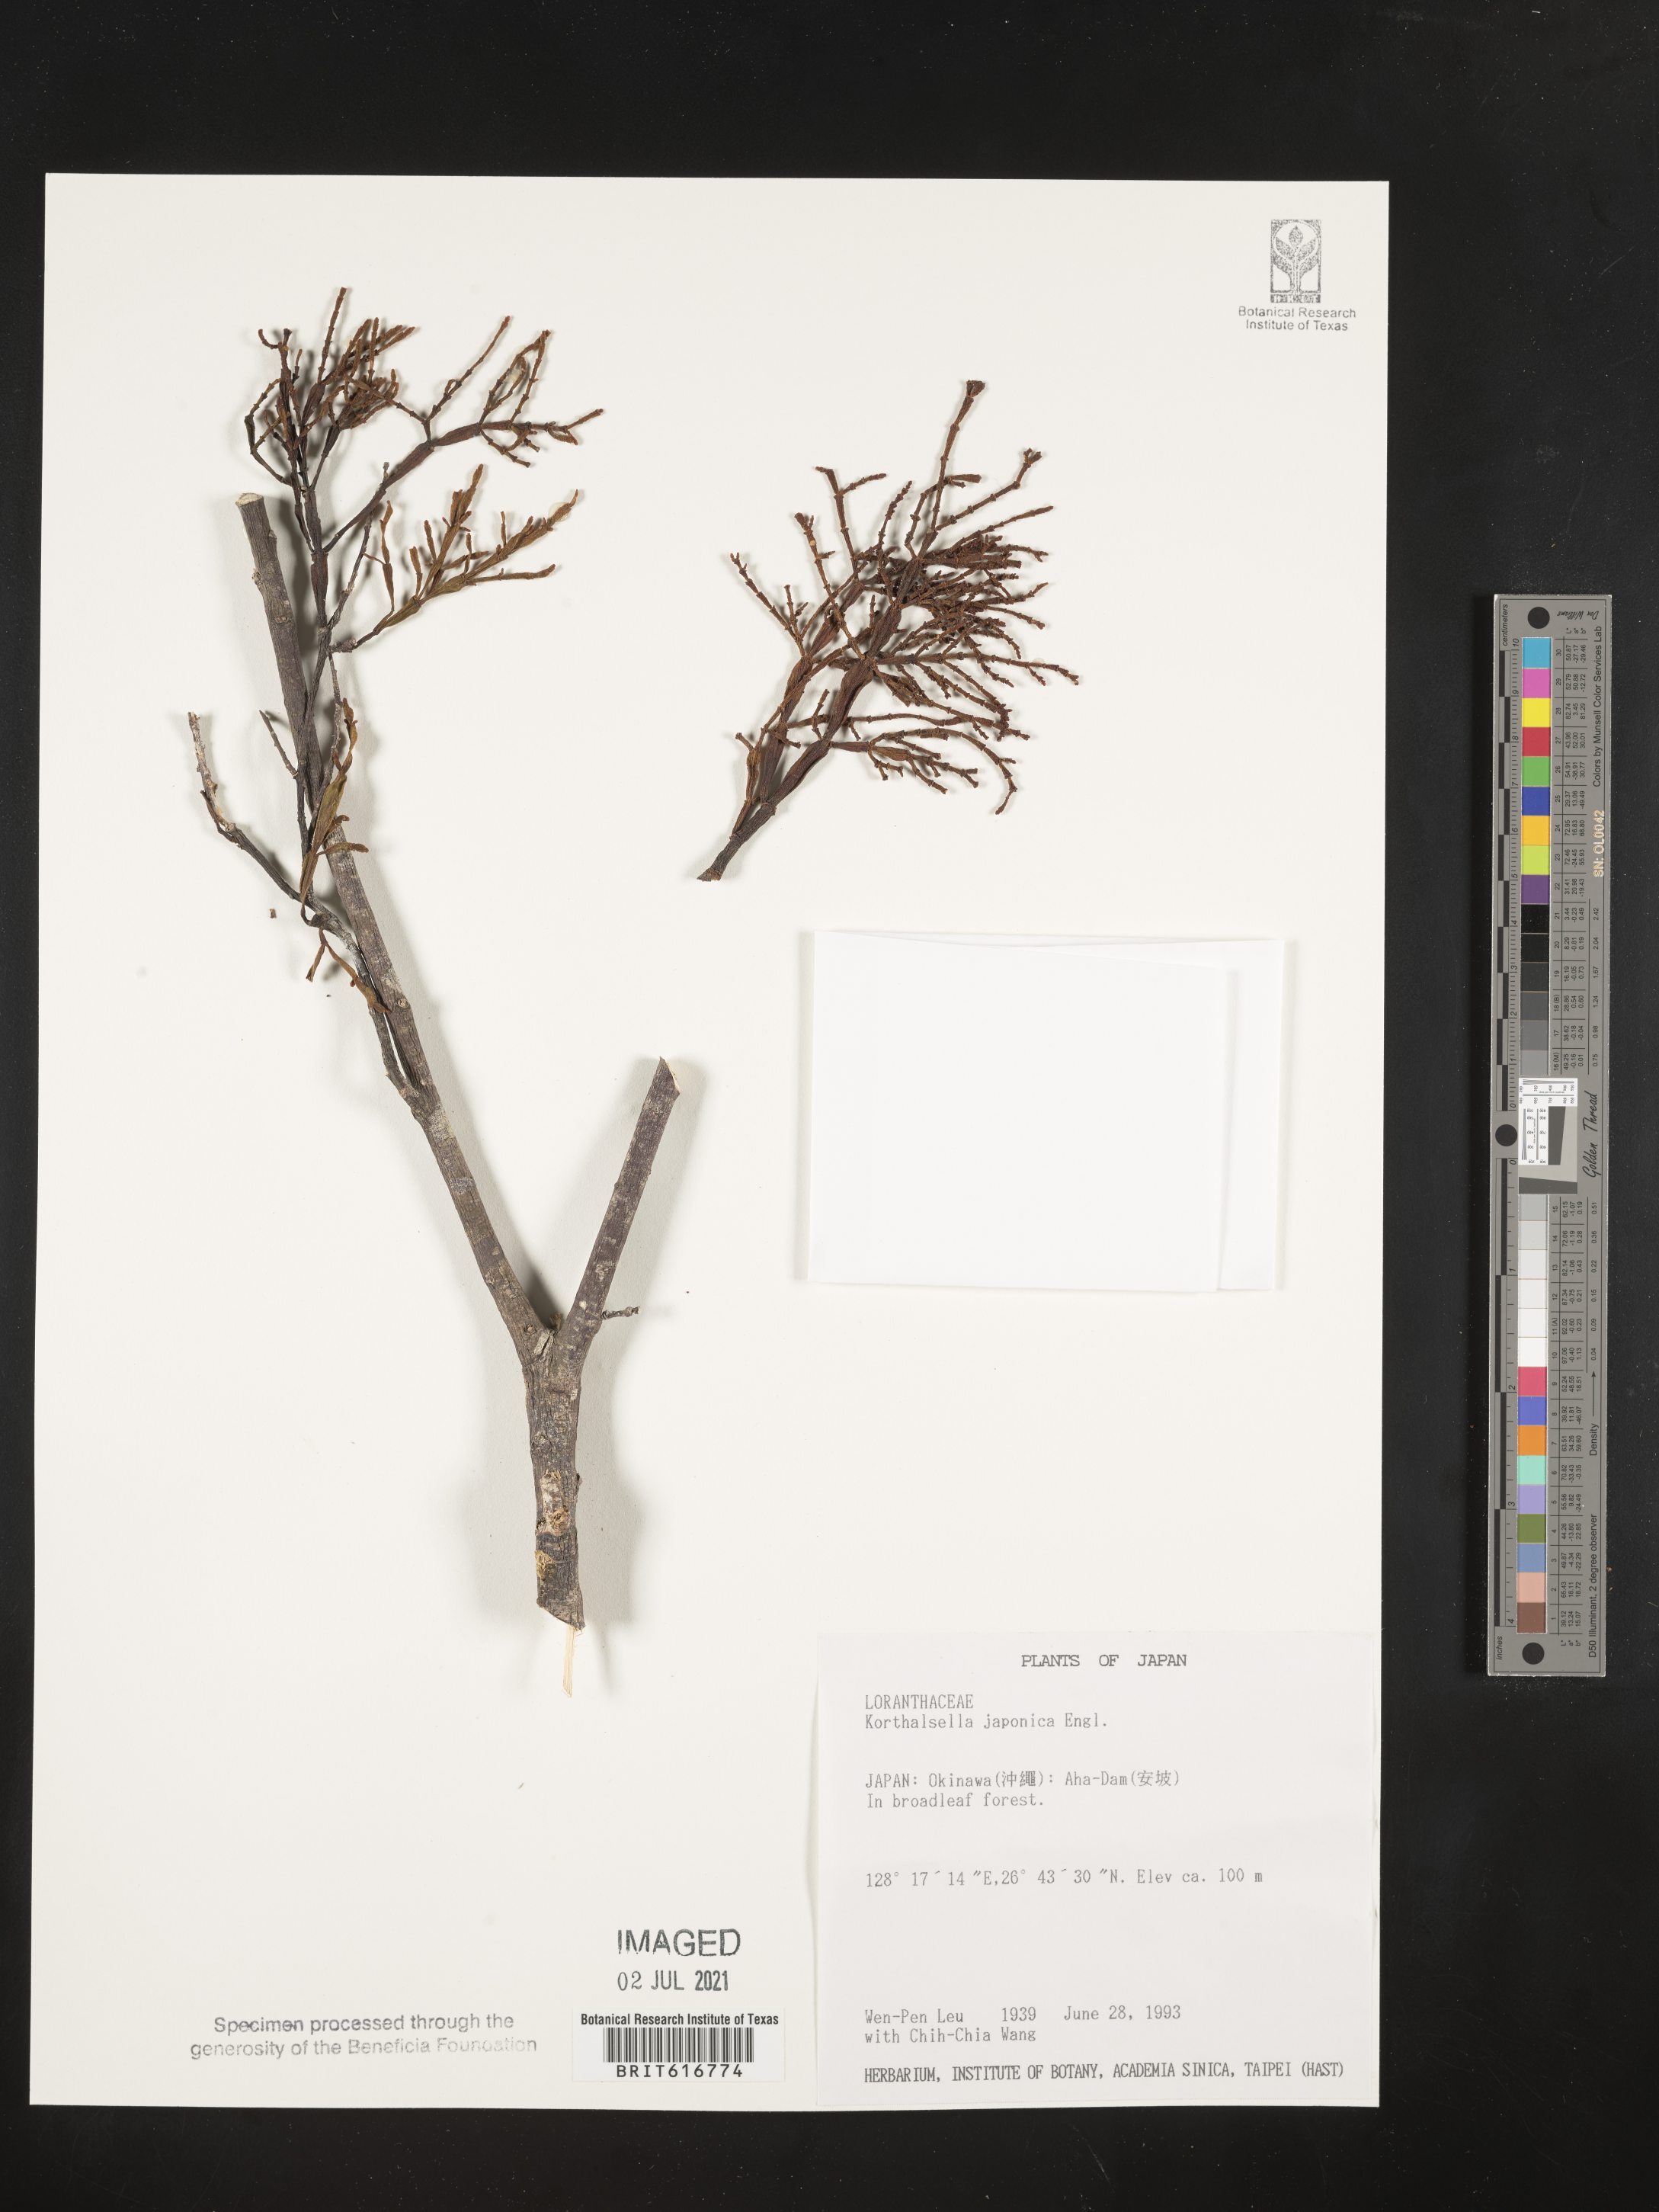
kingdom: Plantae
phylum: Tracheophyta
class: Magnoliopsida
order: Santalales
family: Viscaceae
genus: Korthalsella
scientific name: Korthalsella japonica
